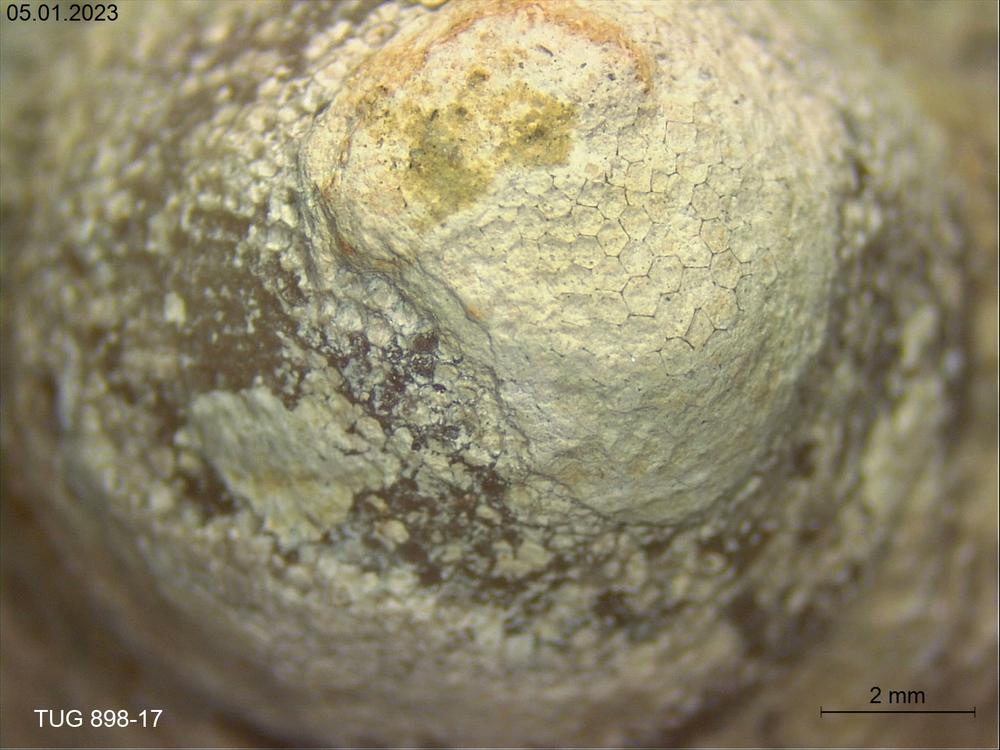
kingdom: Animalia
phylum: Bryozoa
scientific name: Bryozoa
